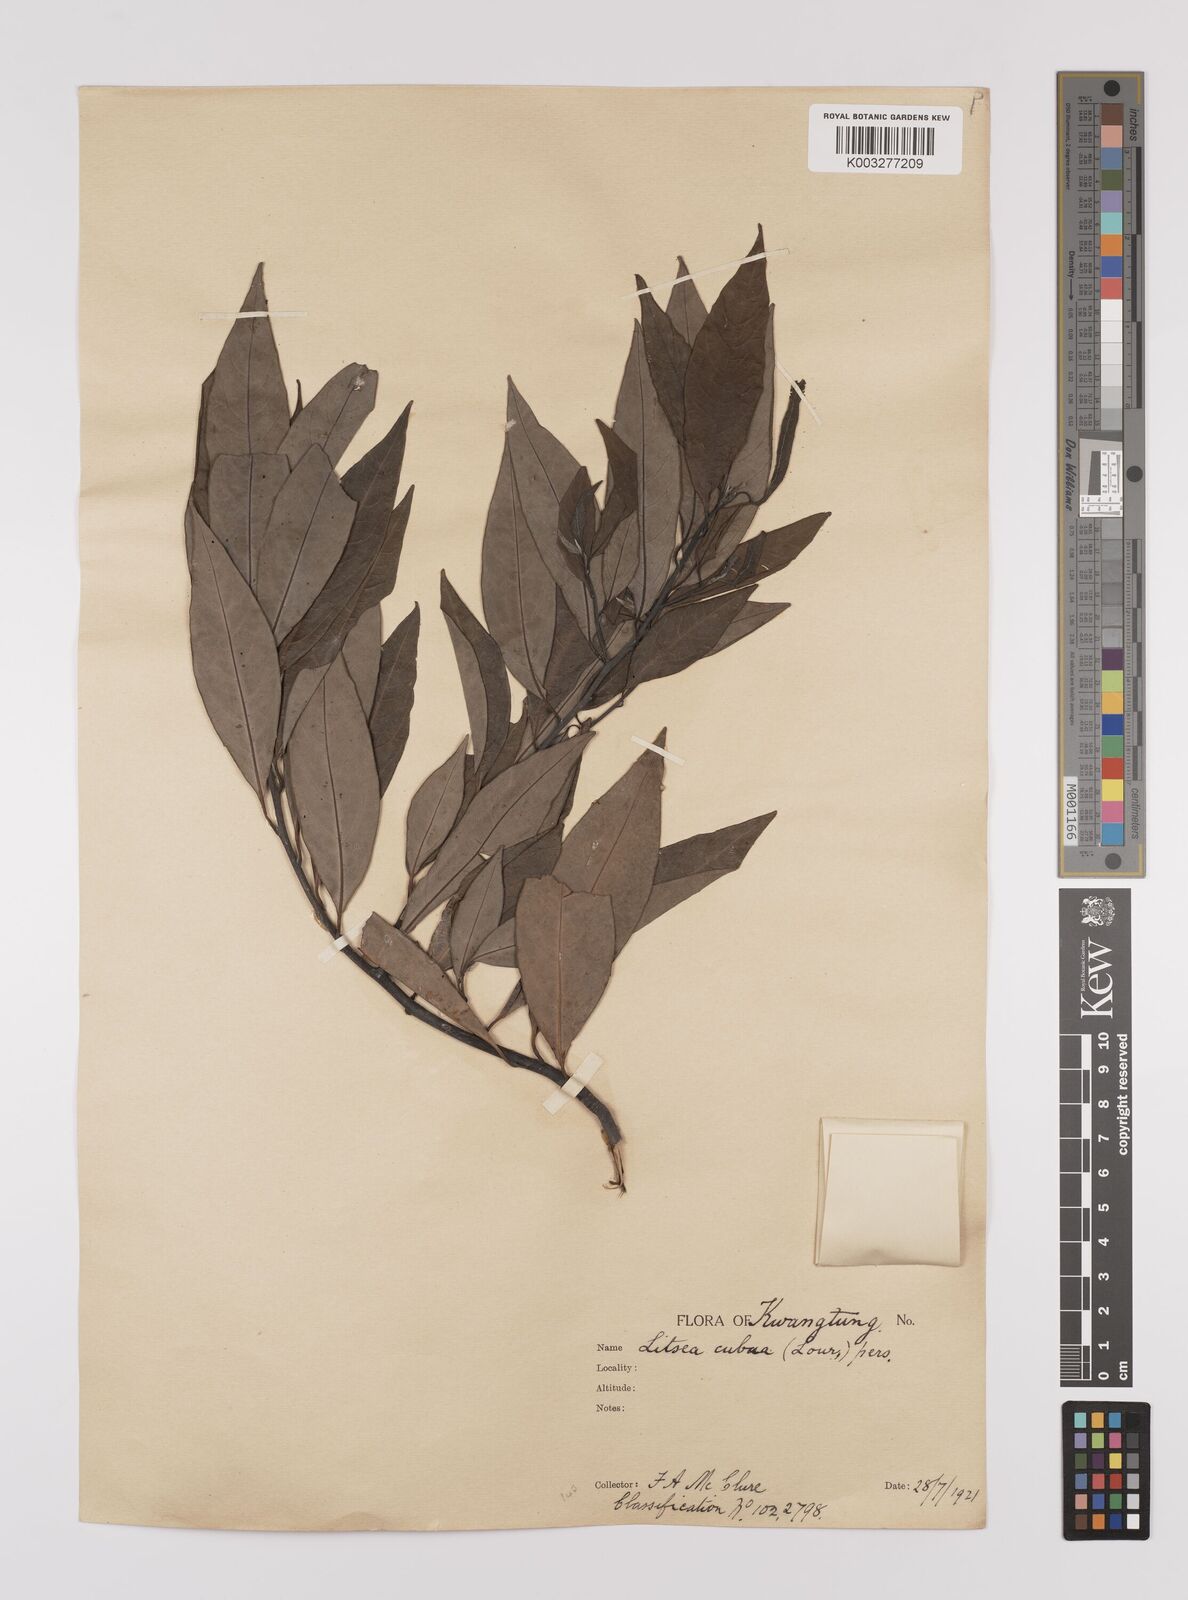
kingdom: Plantae
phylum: Tracheophyta
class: Magnoliopsida
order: Laurales
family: Lauraceae
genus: Litsea
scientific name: Litsea cubeba
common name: Mountain-pepper
